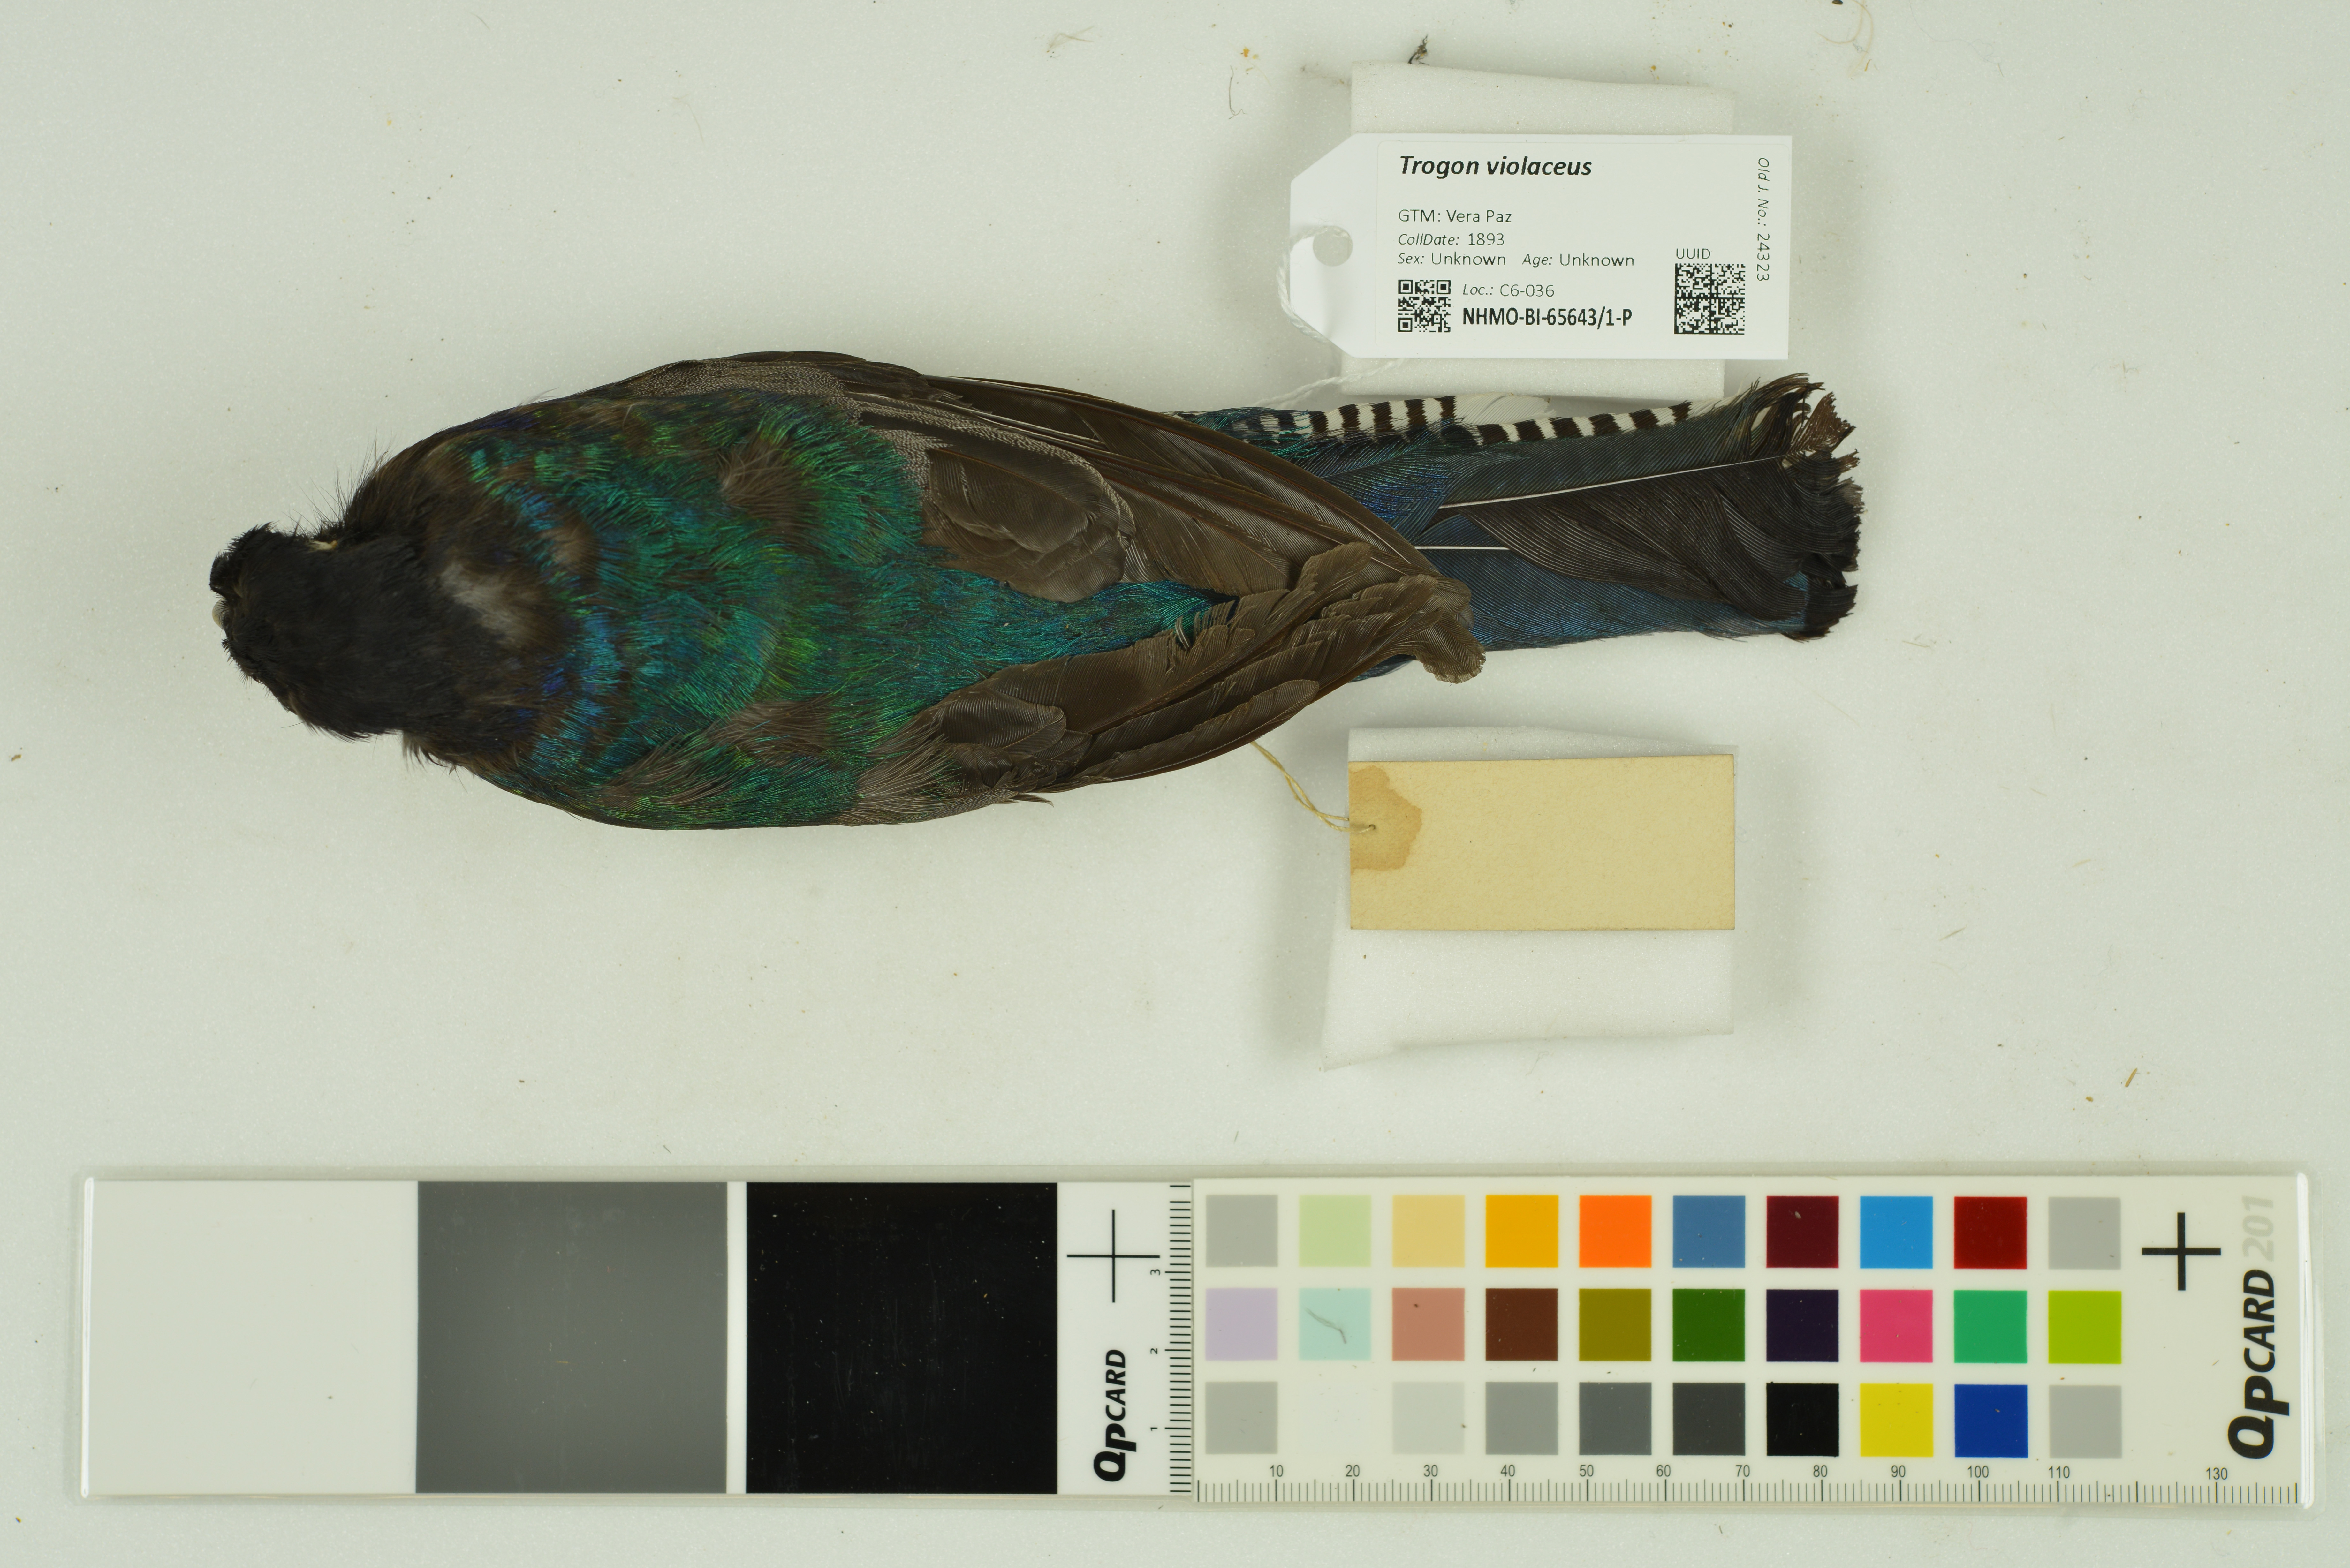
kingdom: Animalia
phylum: Chordata
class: Aves
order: Trogoniformes
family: Trogonidae
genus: Trogon
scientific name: Trogon violaceus
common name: Guianan trogon
